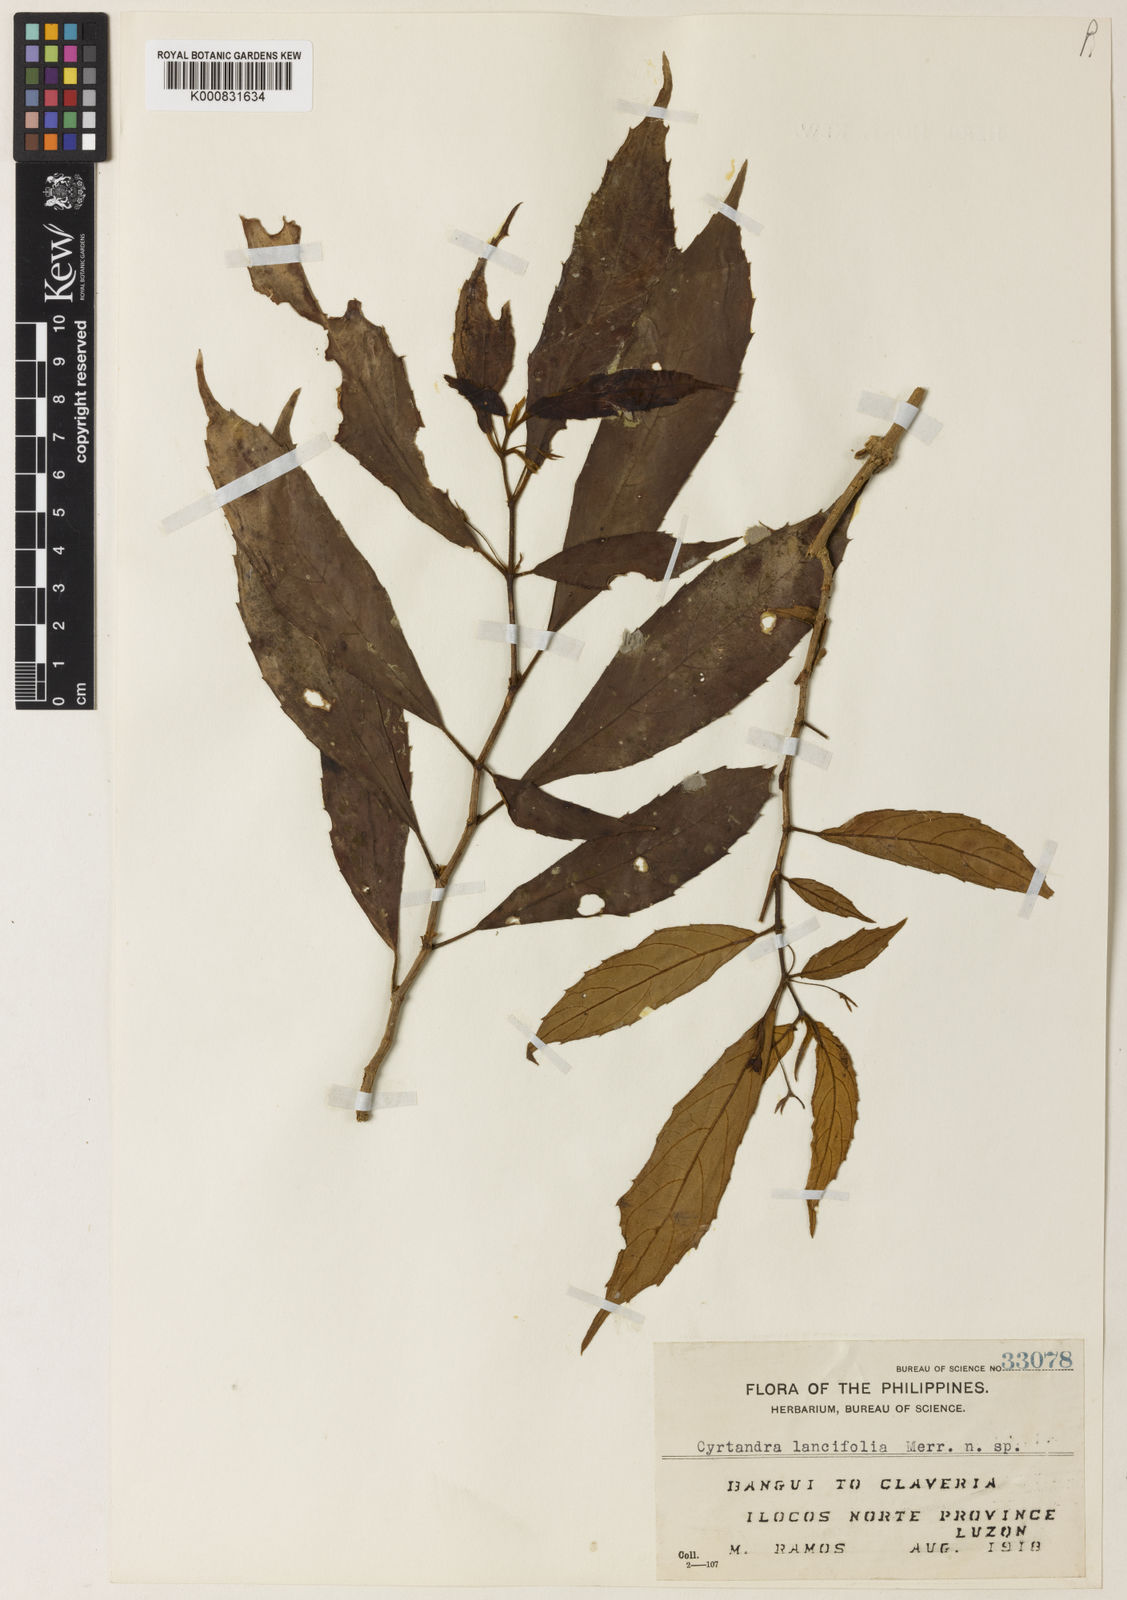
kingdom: Plantae
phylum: Tracheophyta
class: Magnoliopsida
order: Lamiales
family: Gesneriaceae
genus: Cyrtandra
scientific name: Cyrtandra lancifolia
